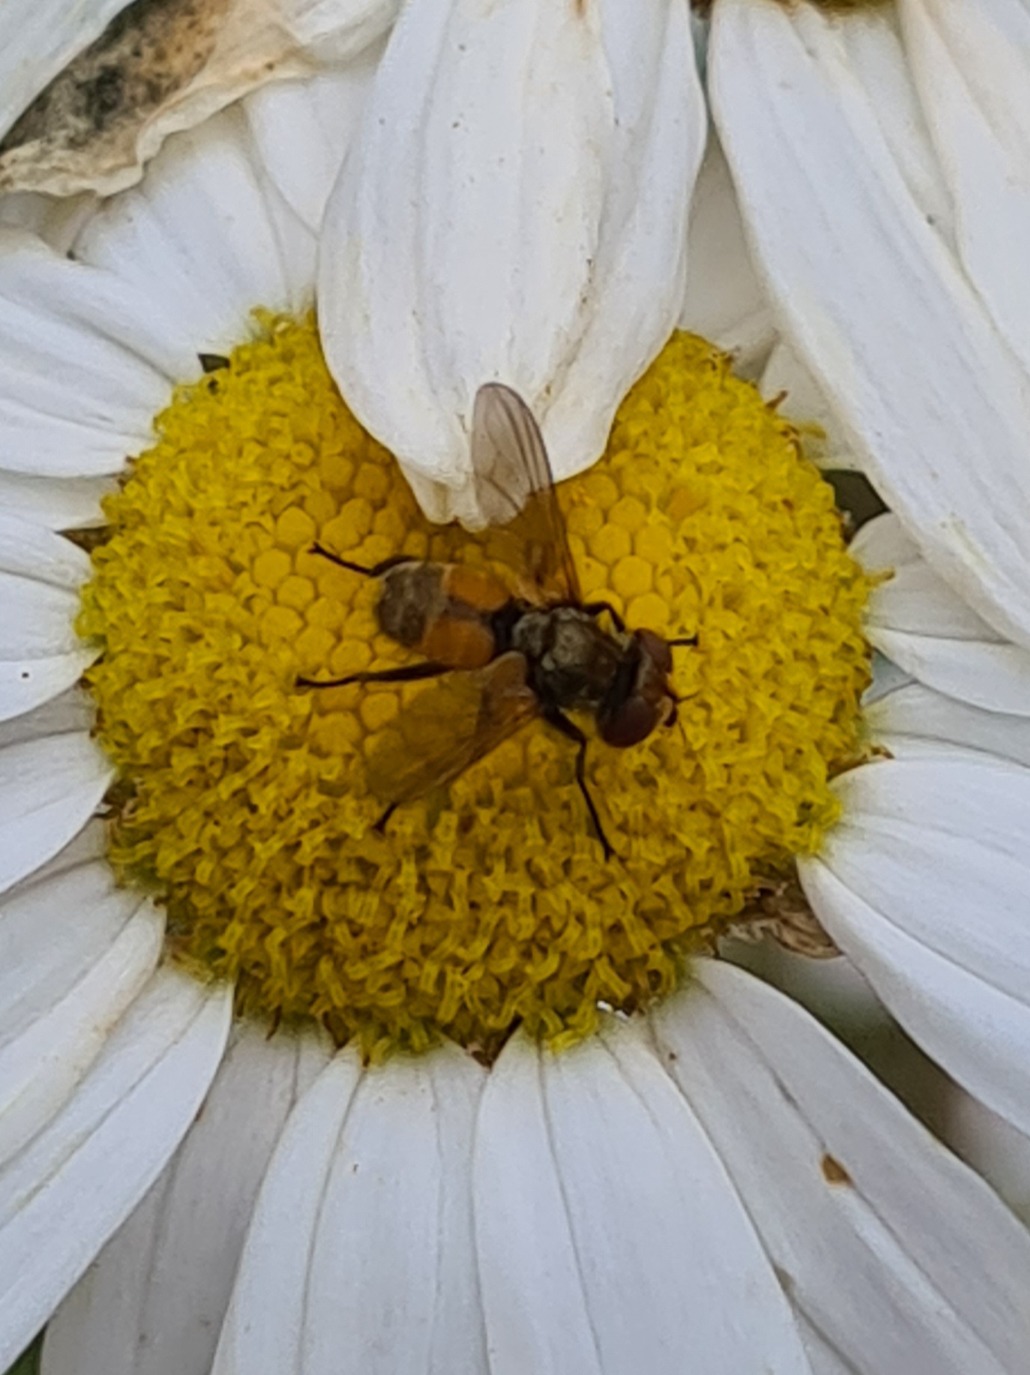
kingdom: Animalia
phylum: Arthropoda
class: Insecta
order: Diptera
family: Tachinidae
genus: Eliozeta
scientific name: Eliozeta pellucens
